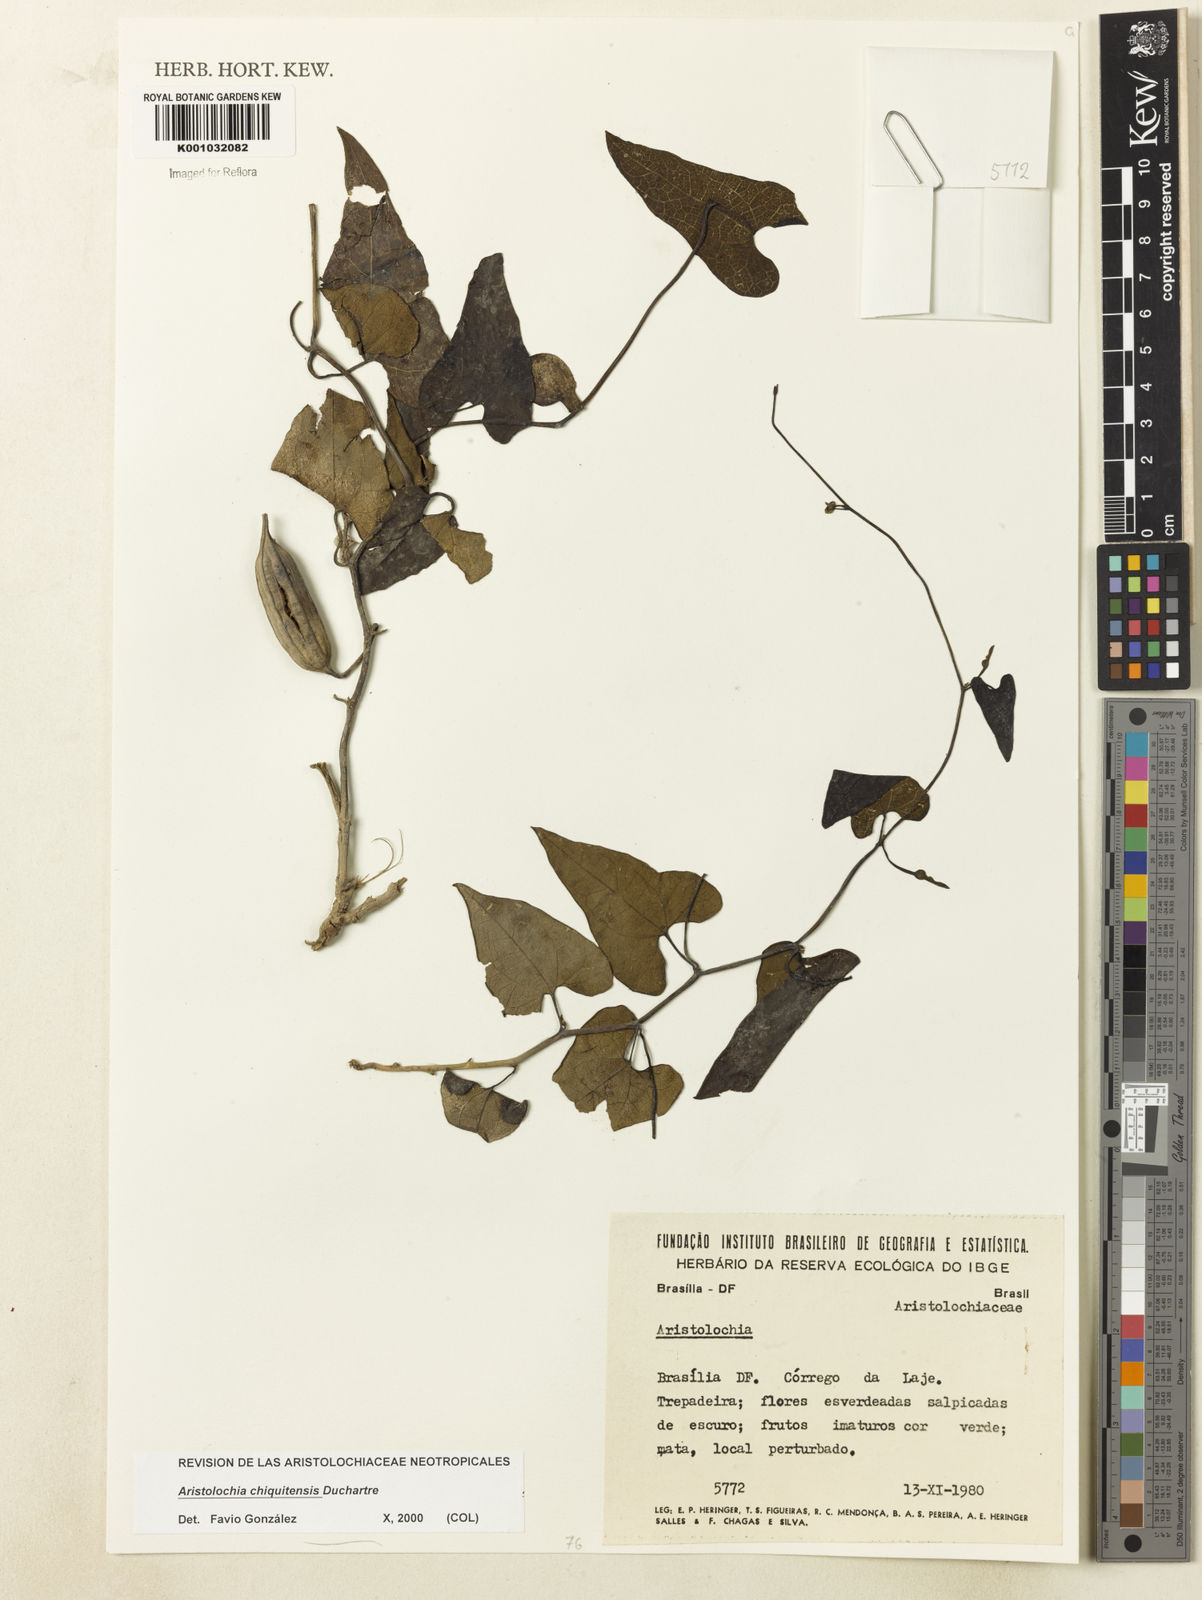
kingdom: Plantae
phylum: Tracheophyta
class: Magnoliopsida
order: Piperales
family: Aristolochiaceae
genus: Aristolochia
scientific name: Aristolochia chiquitensis
